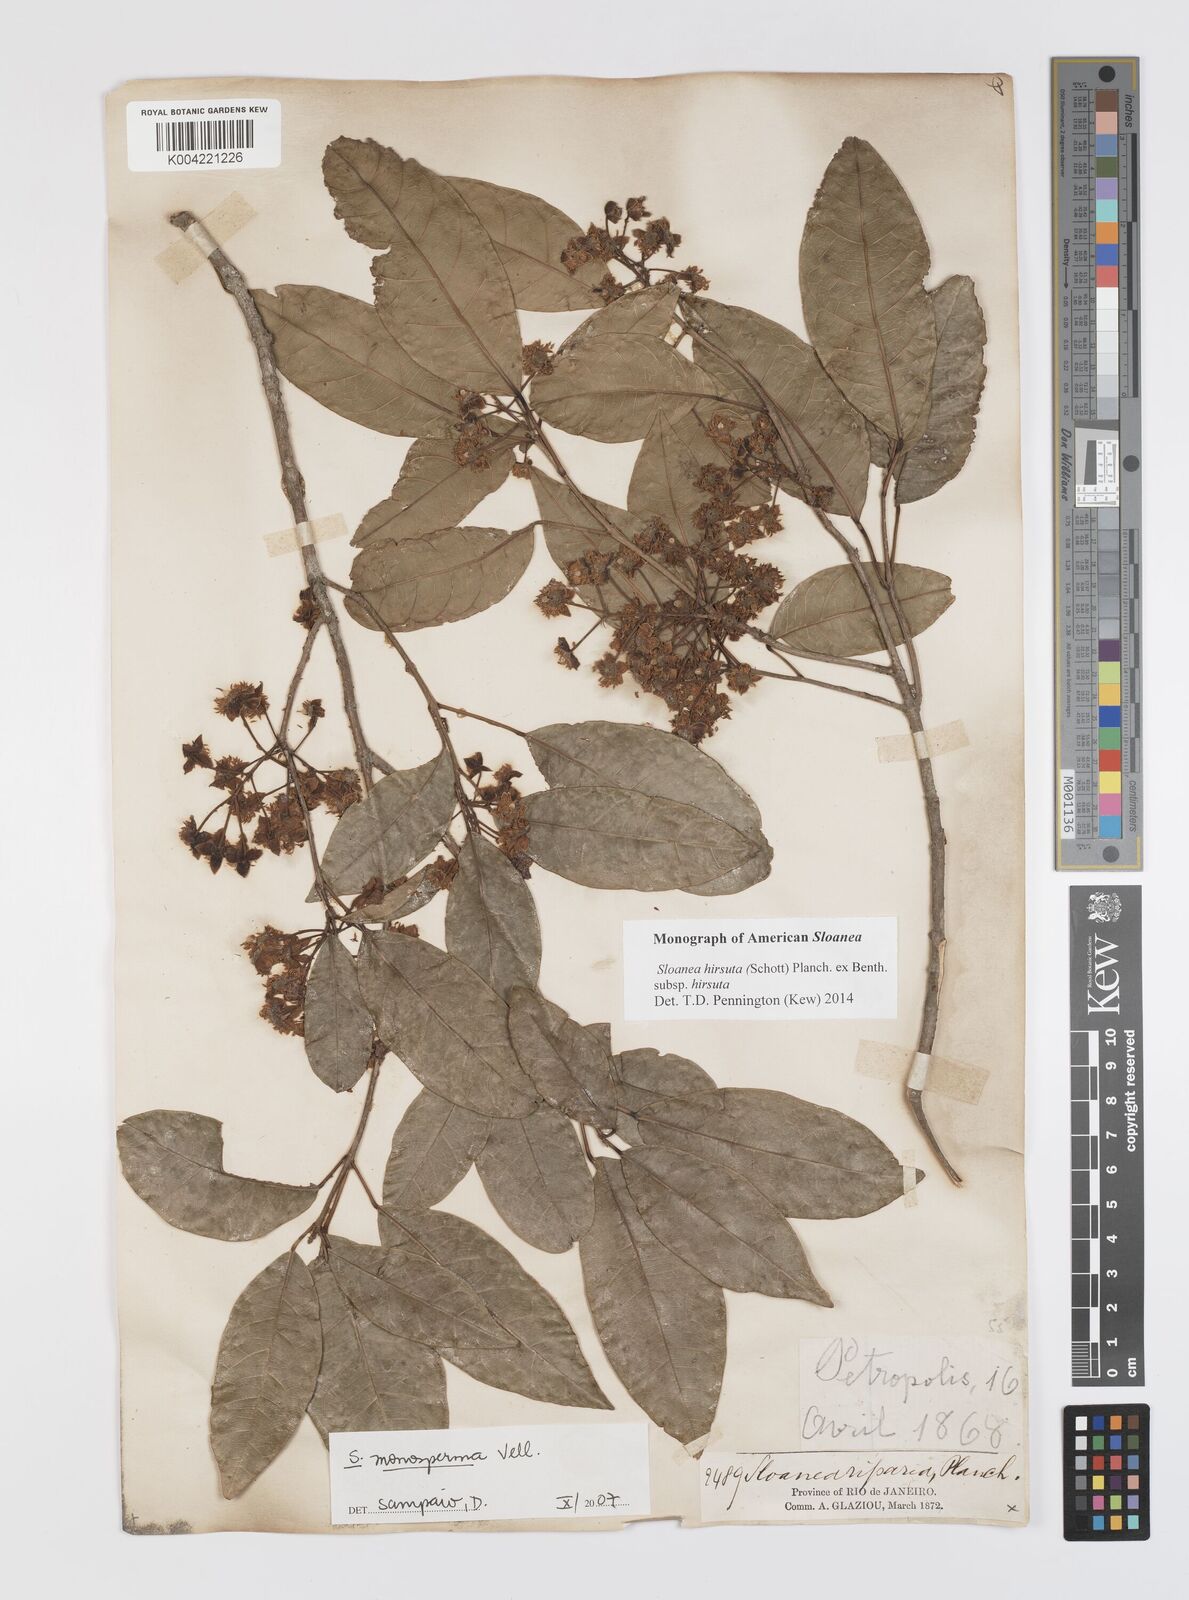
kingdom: Plantae
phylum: Tracheophyta
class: Magnoliopsida
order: Oxalidales
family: Elaeocarpaceae
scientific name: Elaeocarpaceae
